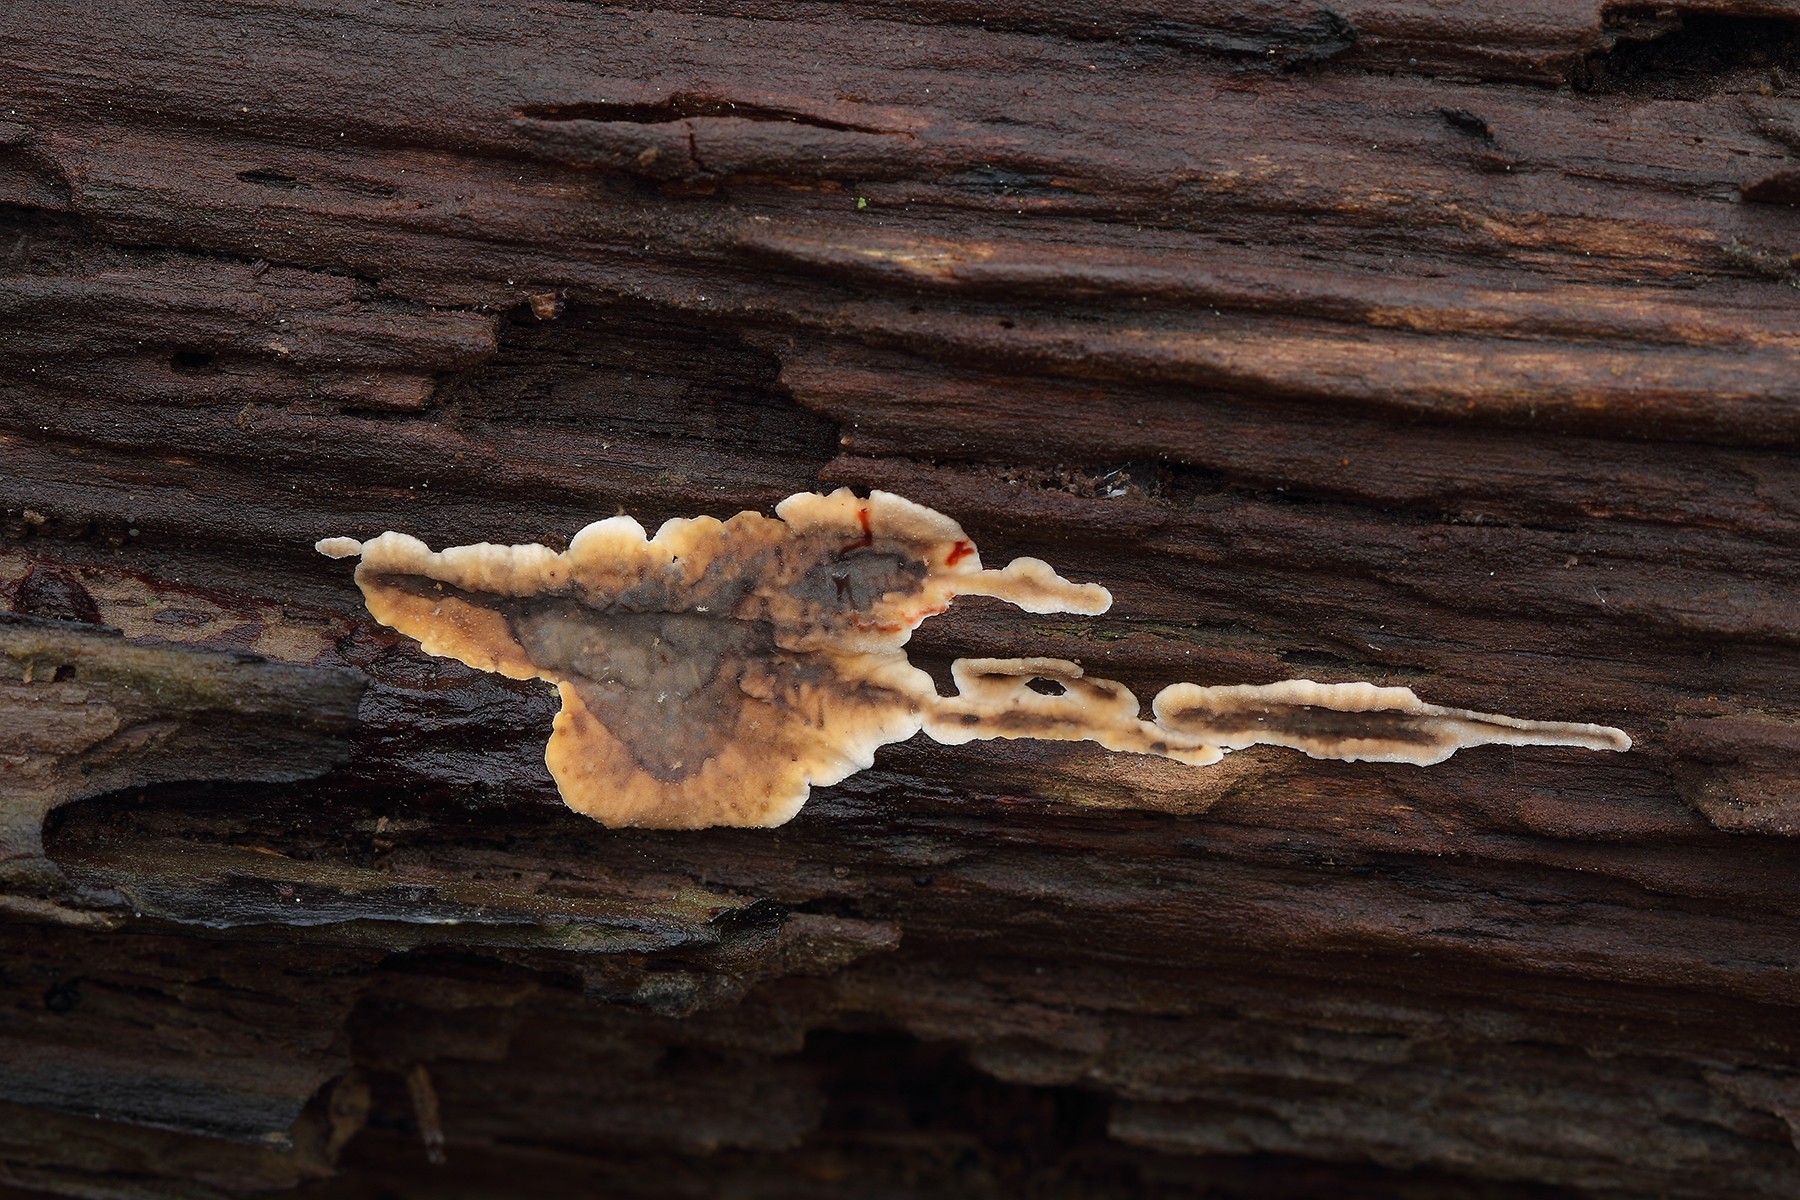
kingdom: Fungi
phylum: Basidiomycota
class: Agaricomycetes
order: Russulales
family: Stereaceae
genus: Stereum
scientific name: Stereum rugosum
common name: rynket lædersvamp
